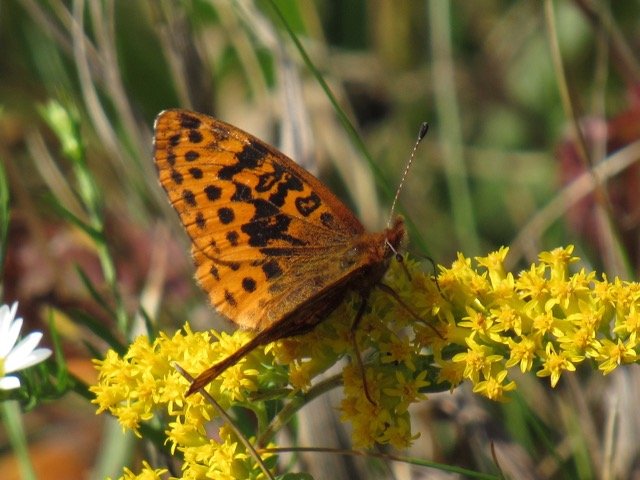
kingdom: Animalia
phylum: Arthropoda
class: Insecta
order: Lepidoptera
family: Nymphalidae
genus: Clossiana
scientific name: Clossiana toddi
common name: Meadow Fritillary
